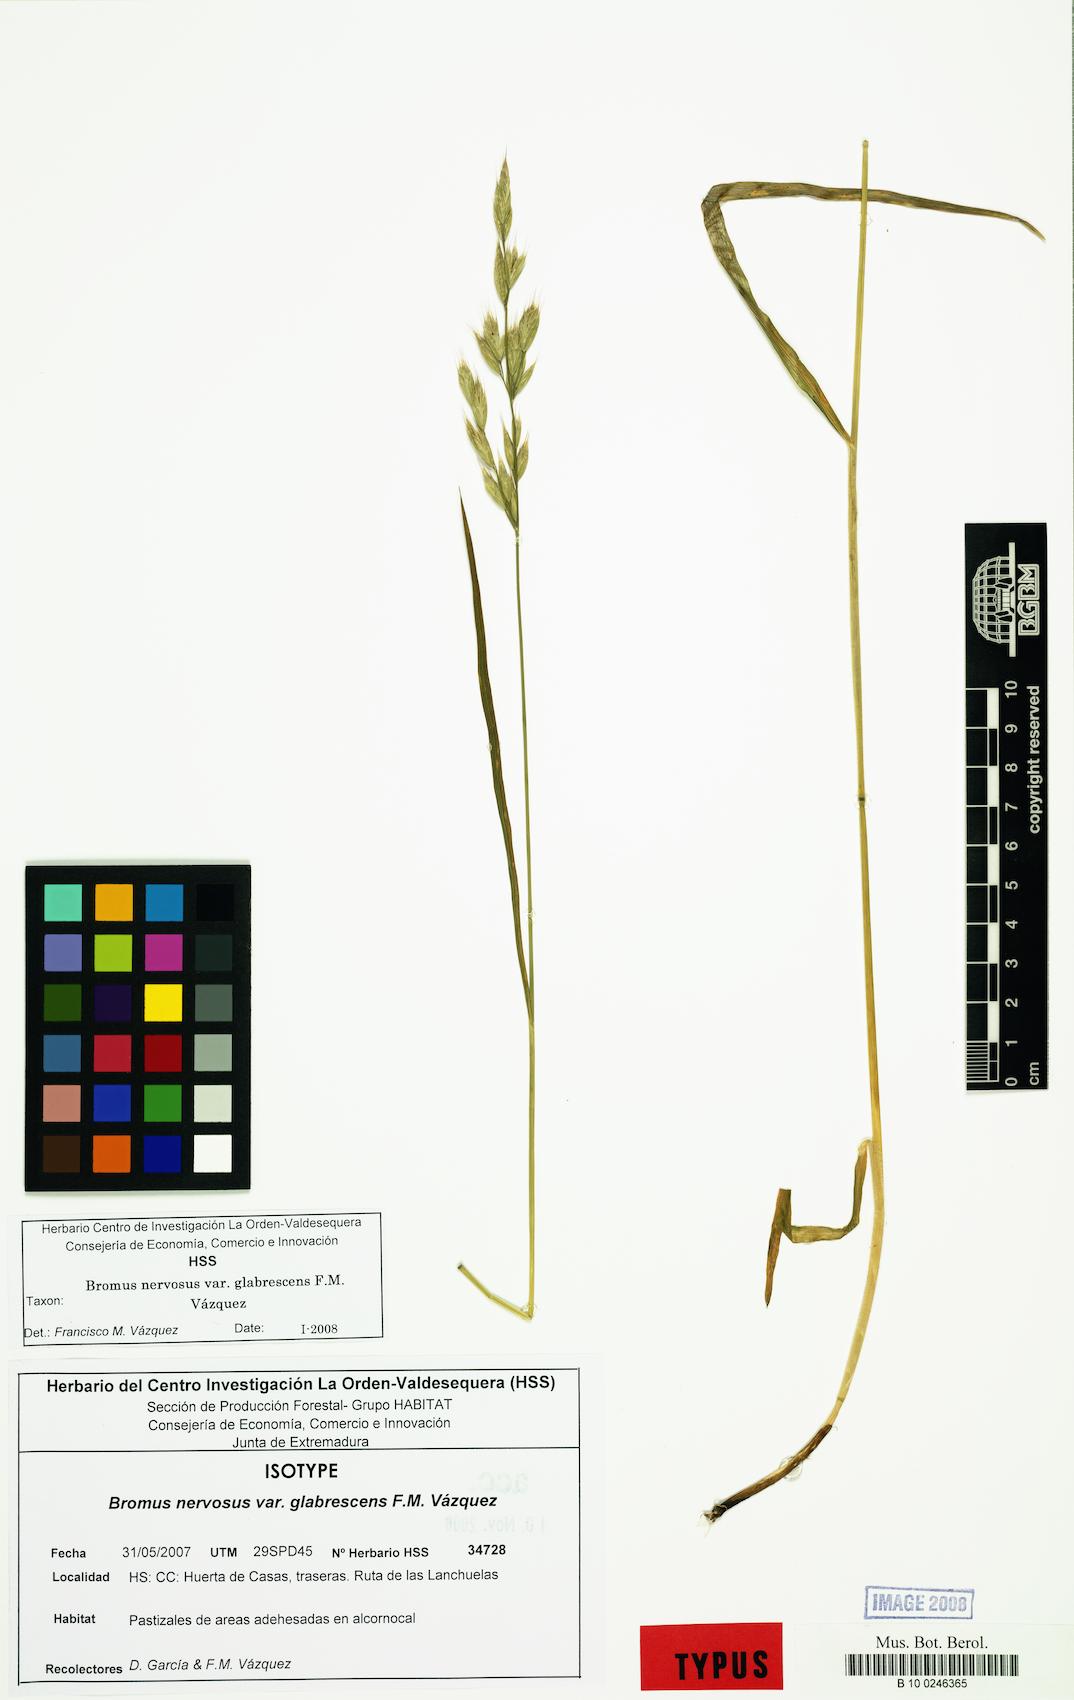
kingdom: Plantae
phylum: Tracheophyta
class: Liliopsida
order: Poales
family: Poaceae
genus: Bromus
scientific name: Bromus nervosus
